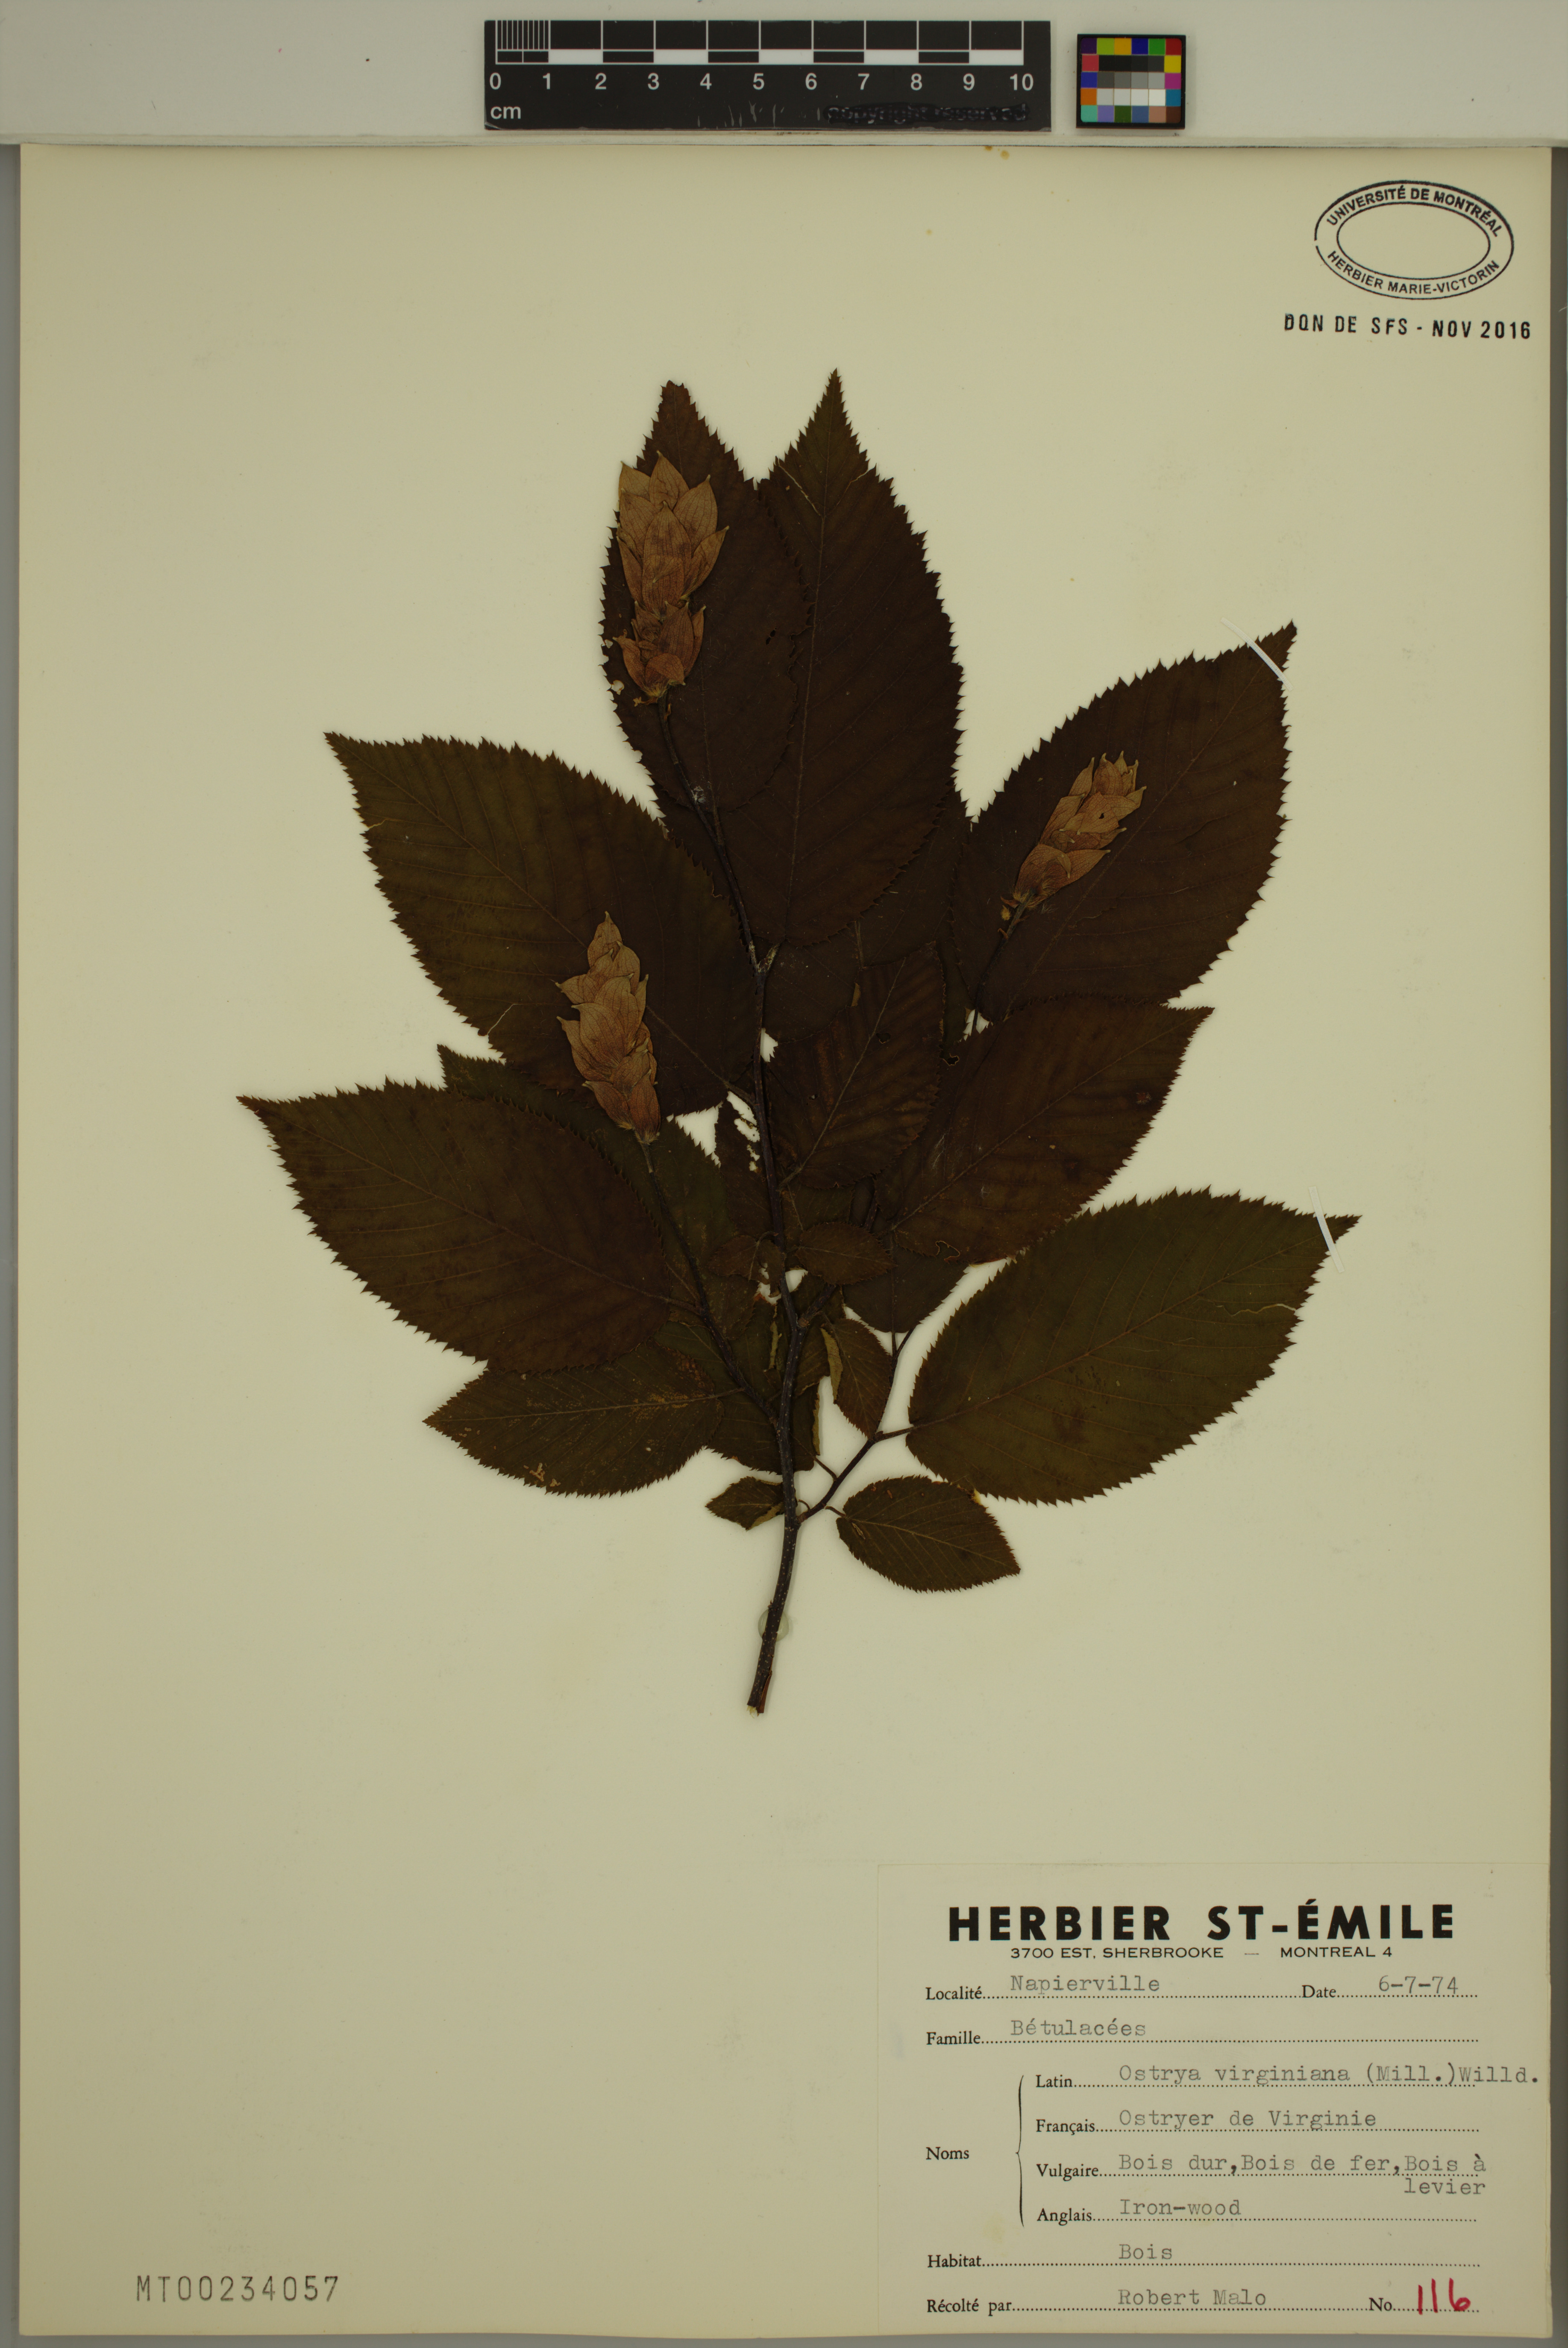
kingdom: Plantae
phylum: Tracheophyta
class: Magnoliopsida
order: Fagales
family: Betulaceae
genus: Ostrya
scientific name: Ostrya virginiana
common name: Ironwood
